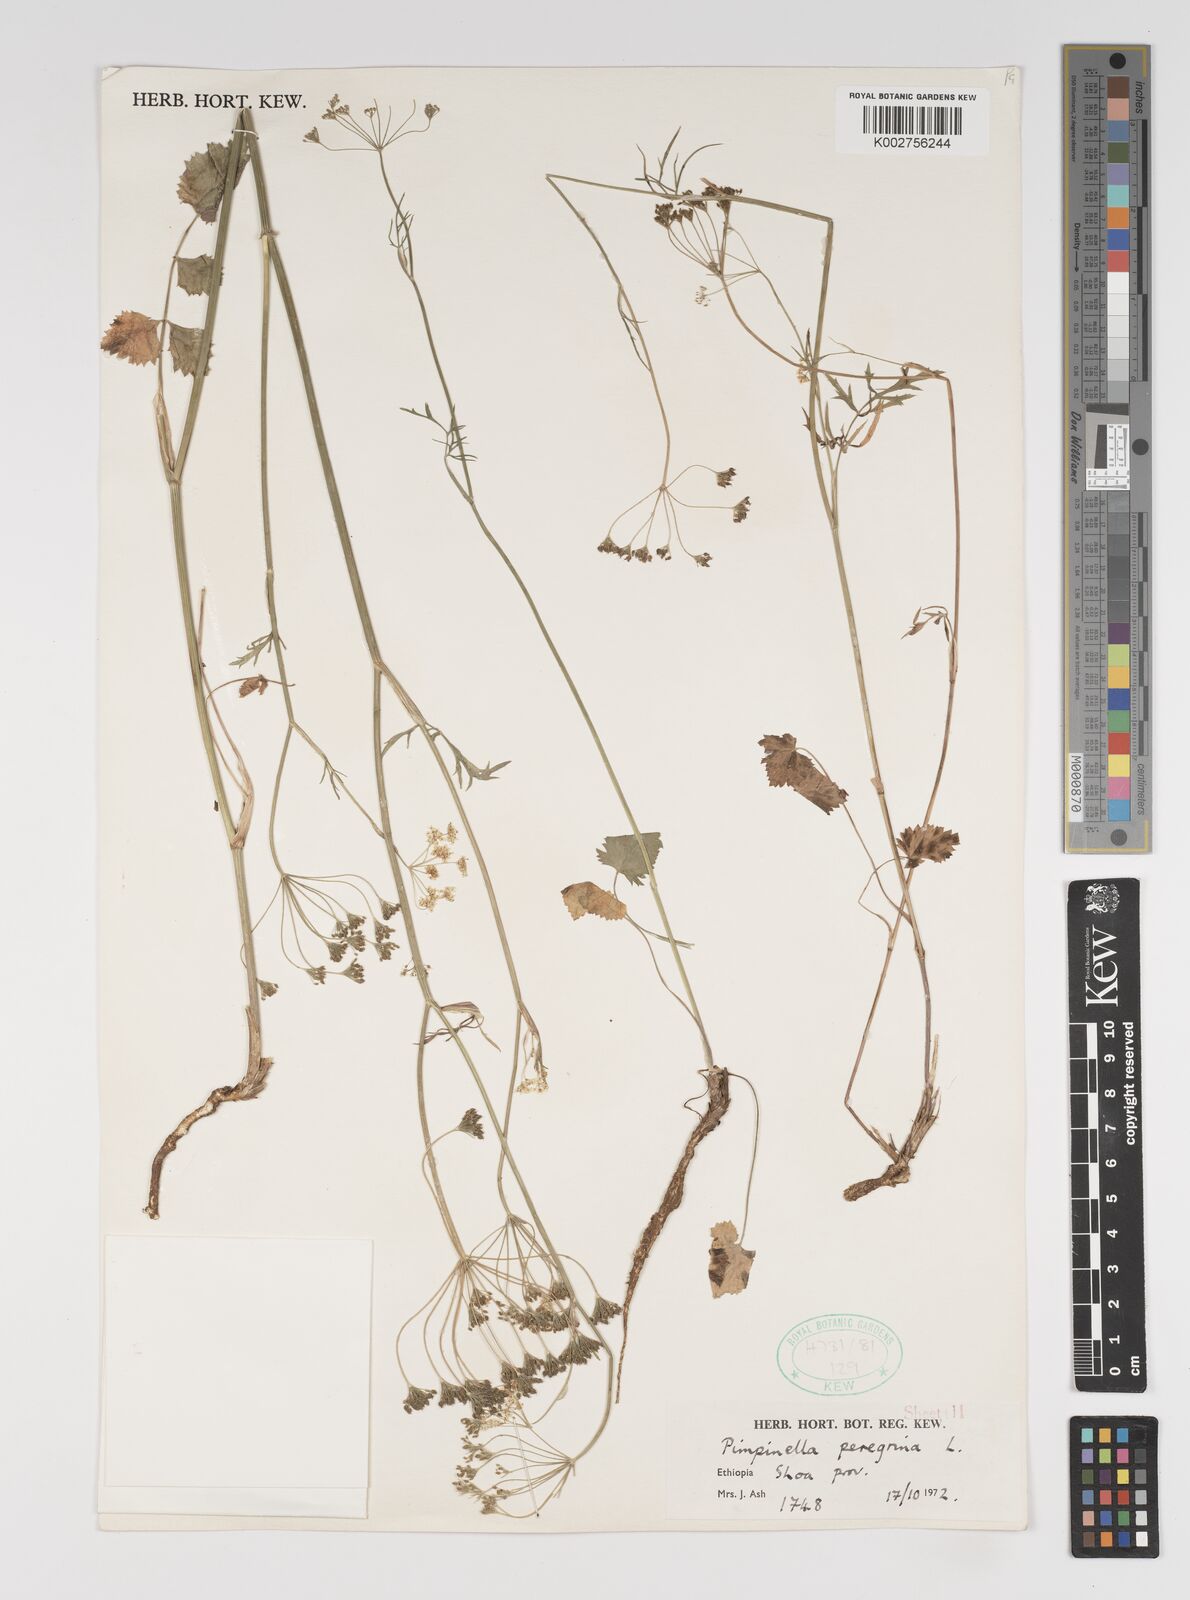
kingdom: Plantae
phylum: Tracheophyta
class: Magnoliopsida
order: Apiales
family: Apiaceae
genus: Pimpinella
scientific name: Pimpinella hirtella
